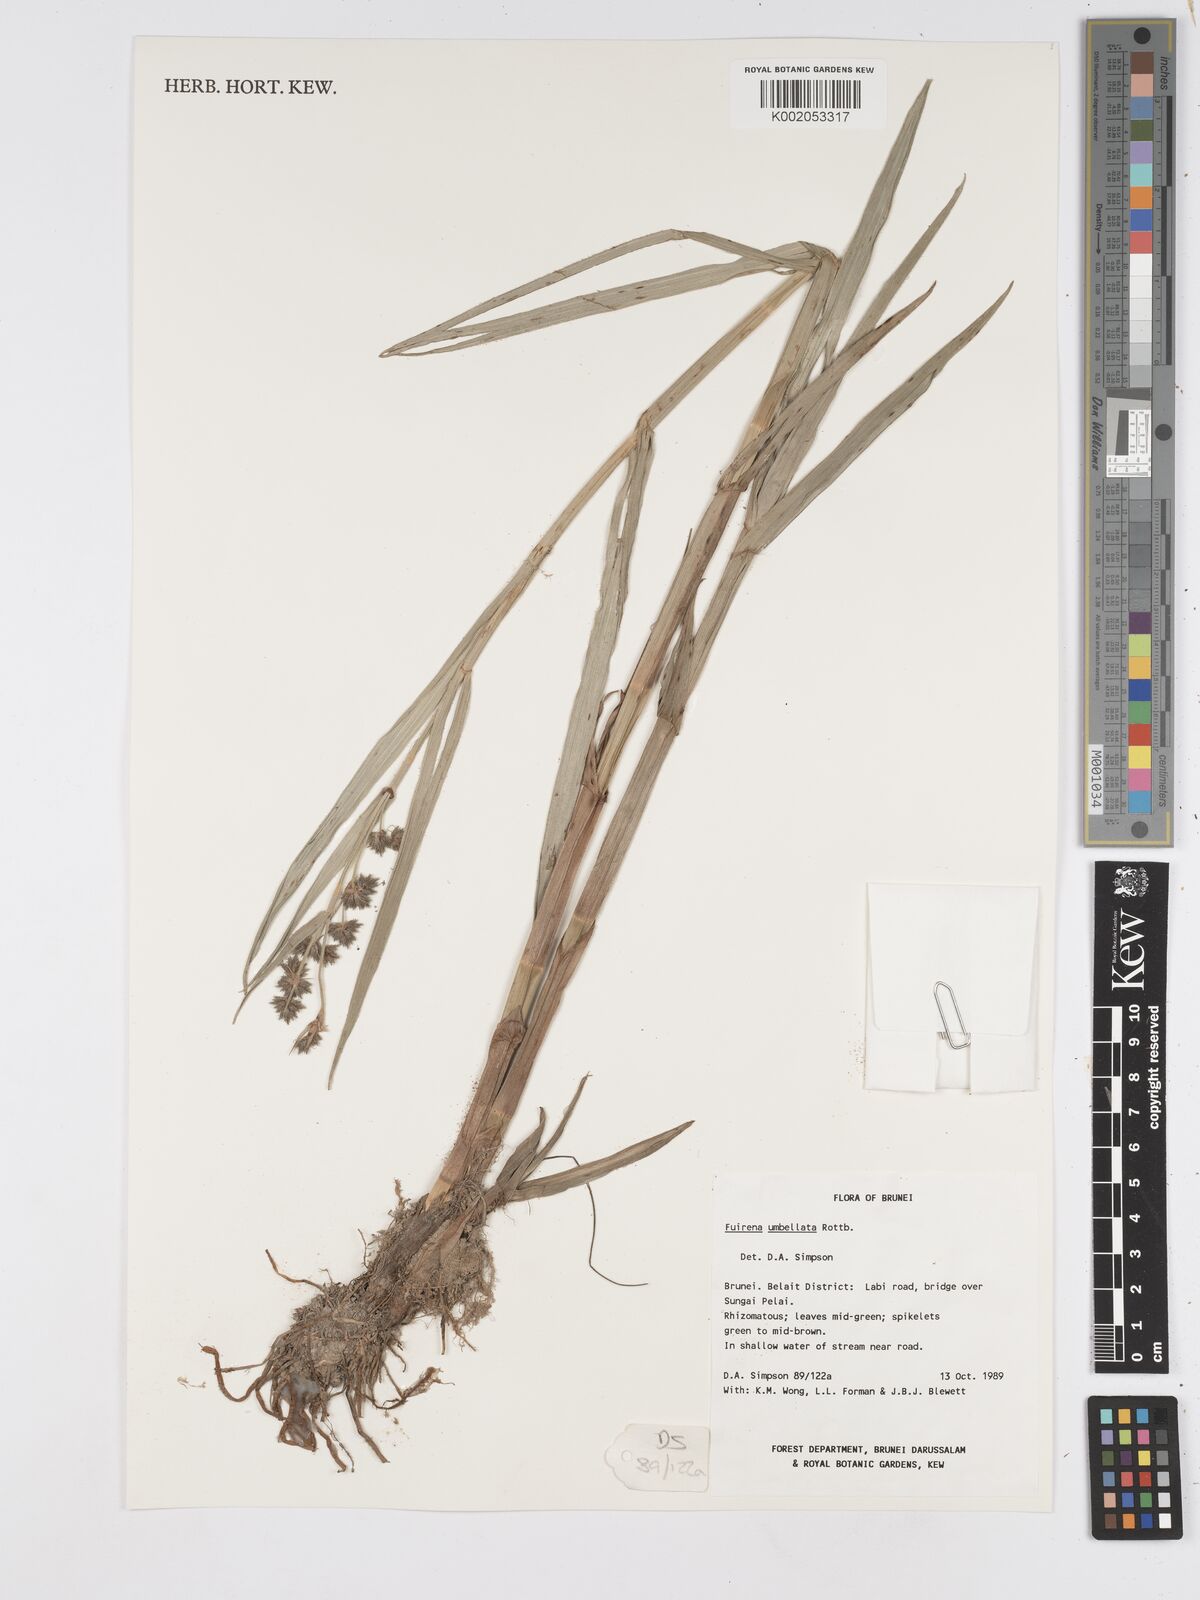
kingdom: Plantae
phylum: Tracheophyta
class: Liliopsida
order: Poales
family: Cyperaceae
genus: Fuirena
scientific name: Fuirena umbellata
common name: Yefen
